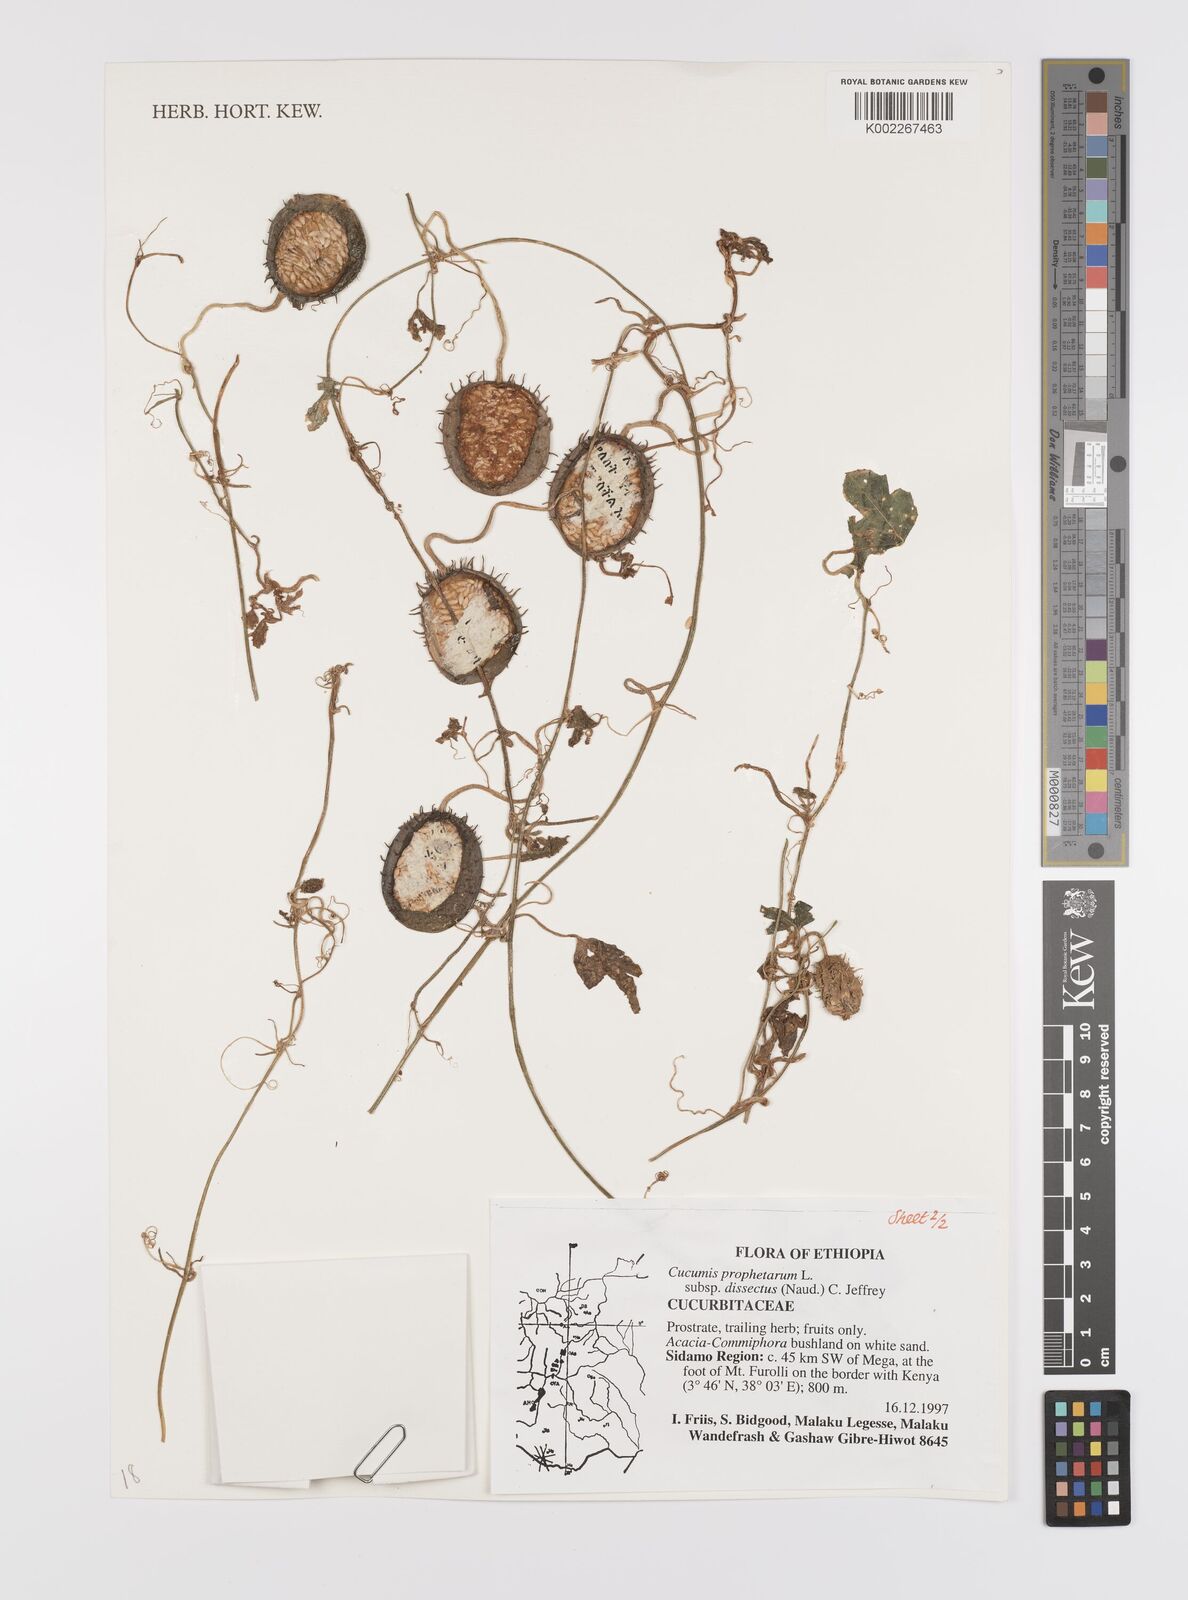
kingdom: Plantae
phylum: Tracheophyta
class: Magnoliopsida
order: Cucurbitales
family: Cucurbitaceae
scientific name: Cucurbitaceae
